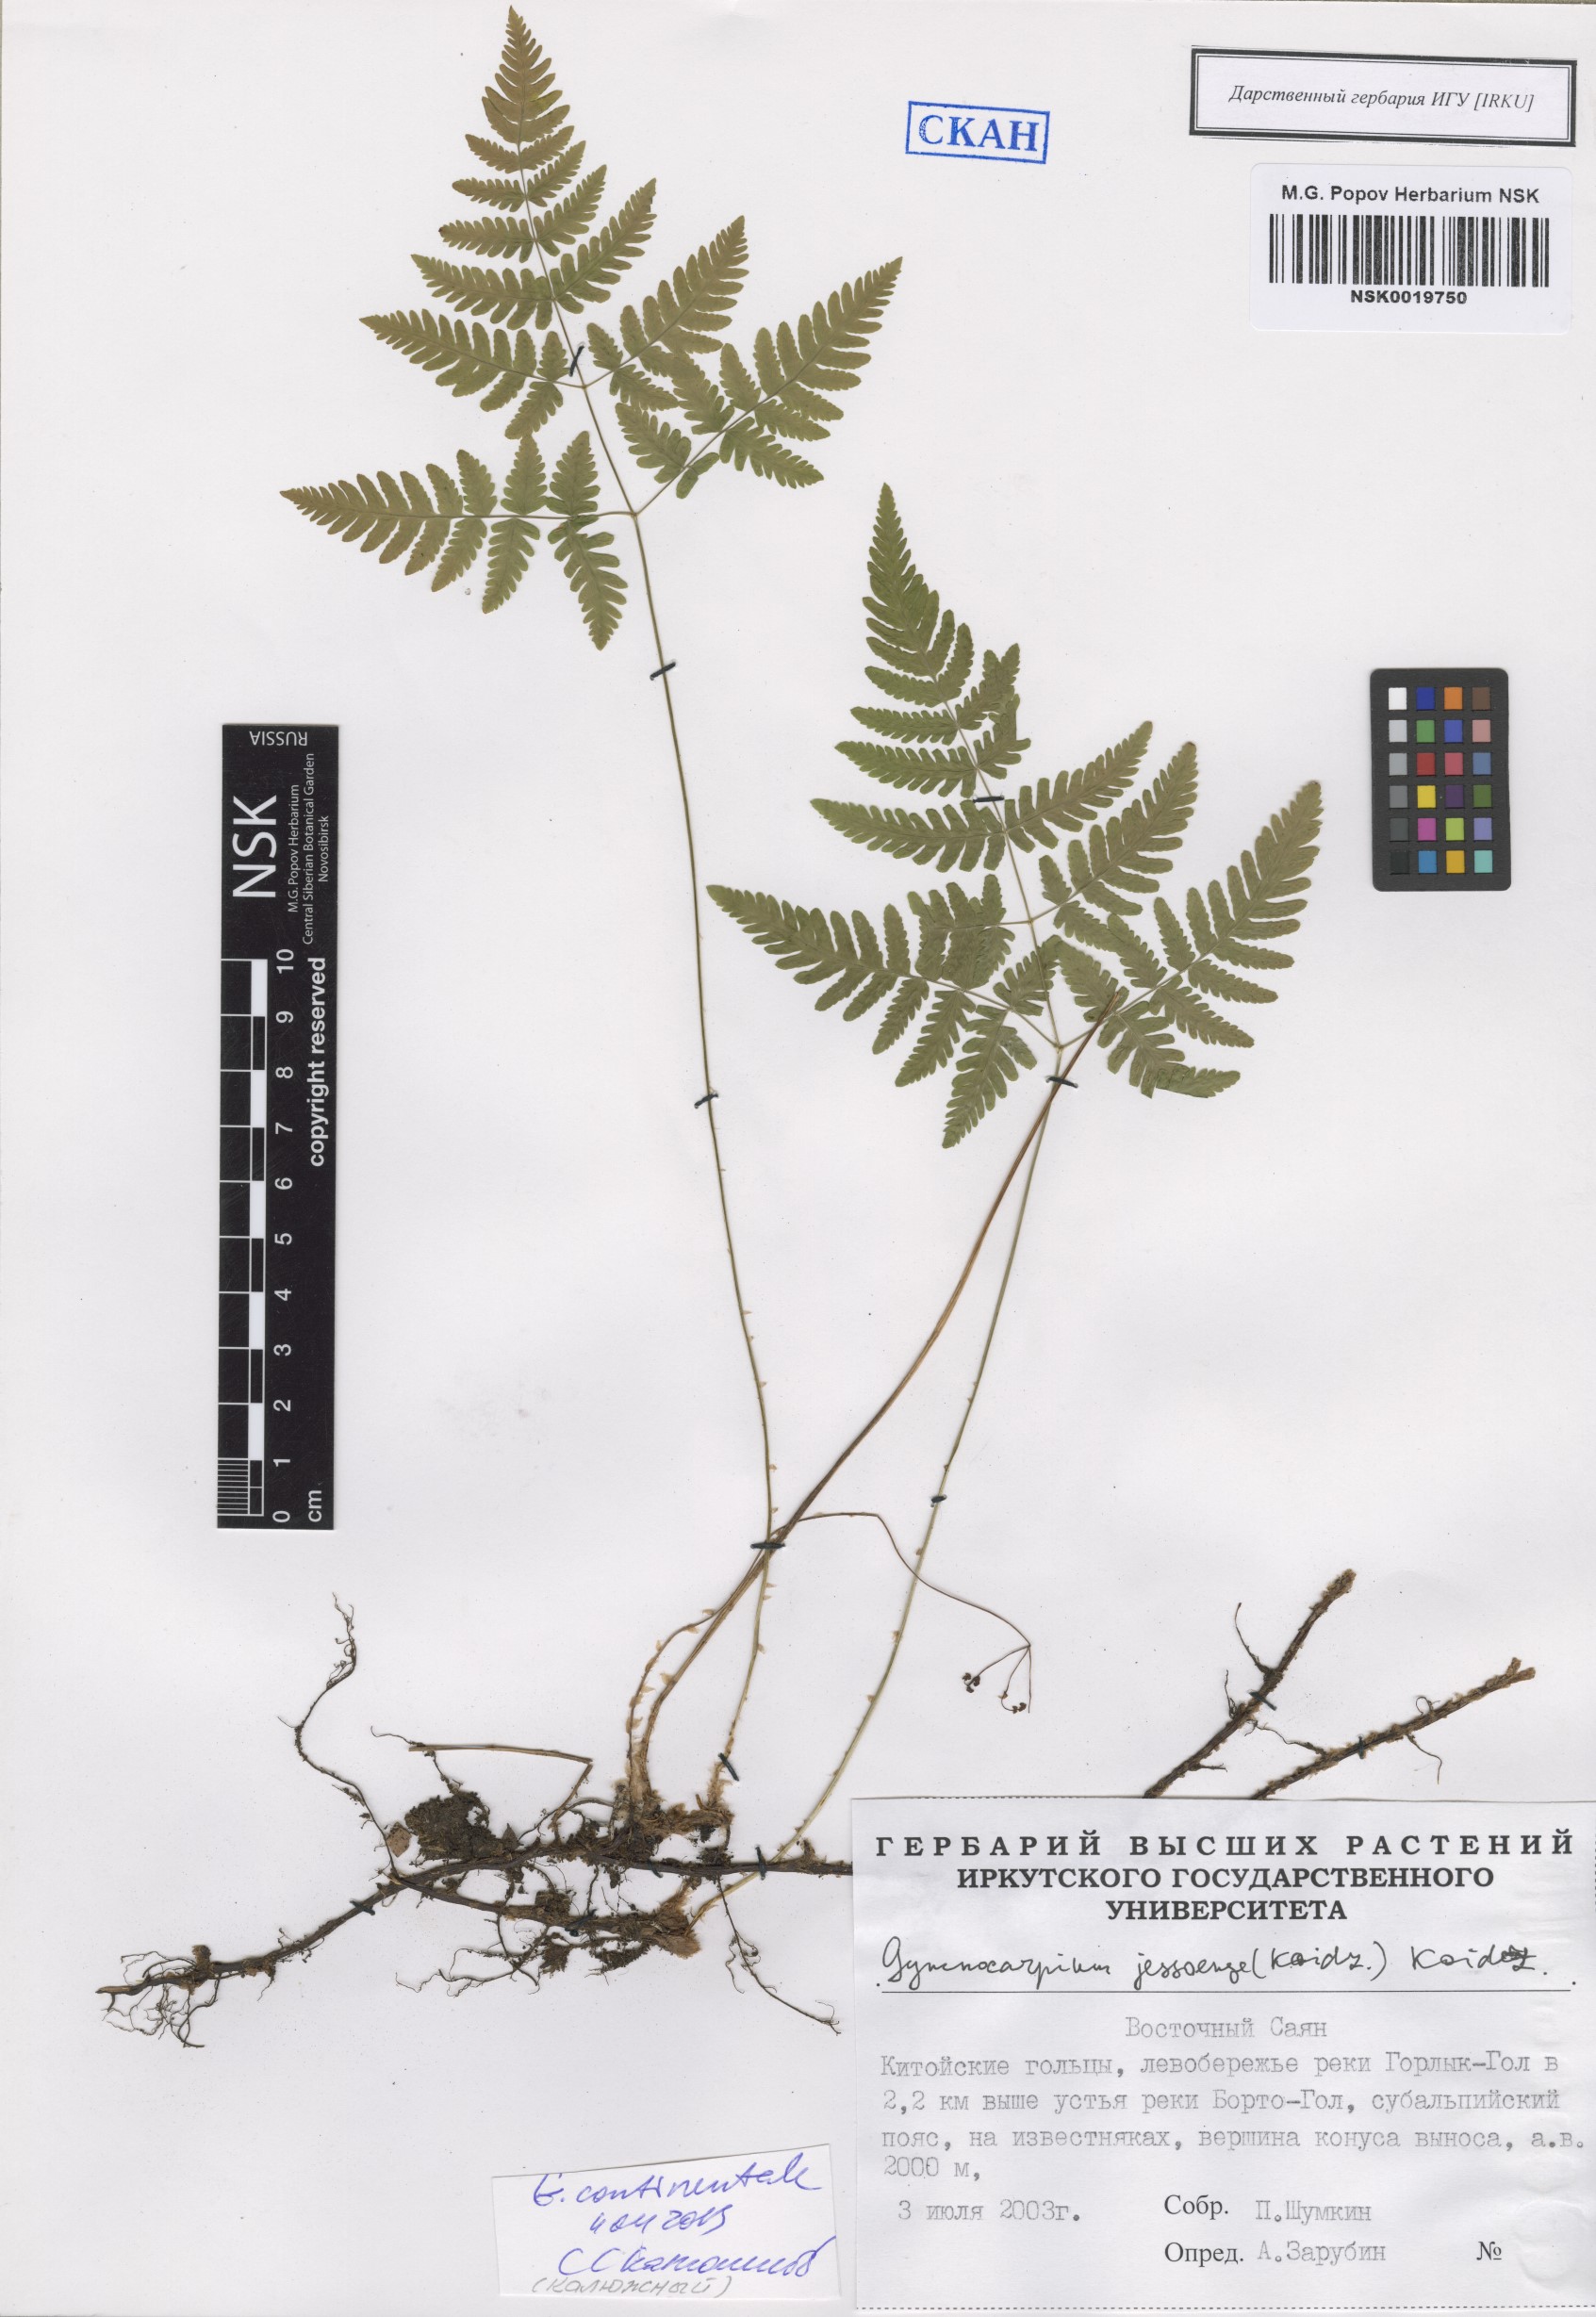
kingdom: Plantae
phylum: Tracheophyta
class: Polypodiopsida
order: Polypodiales
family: Cystopteridaceae
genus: Gymnocarpium
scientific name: Gymnocarpium continentale
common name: Asian oak fern
